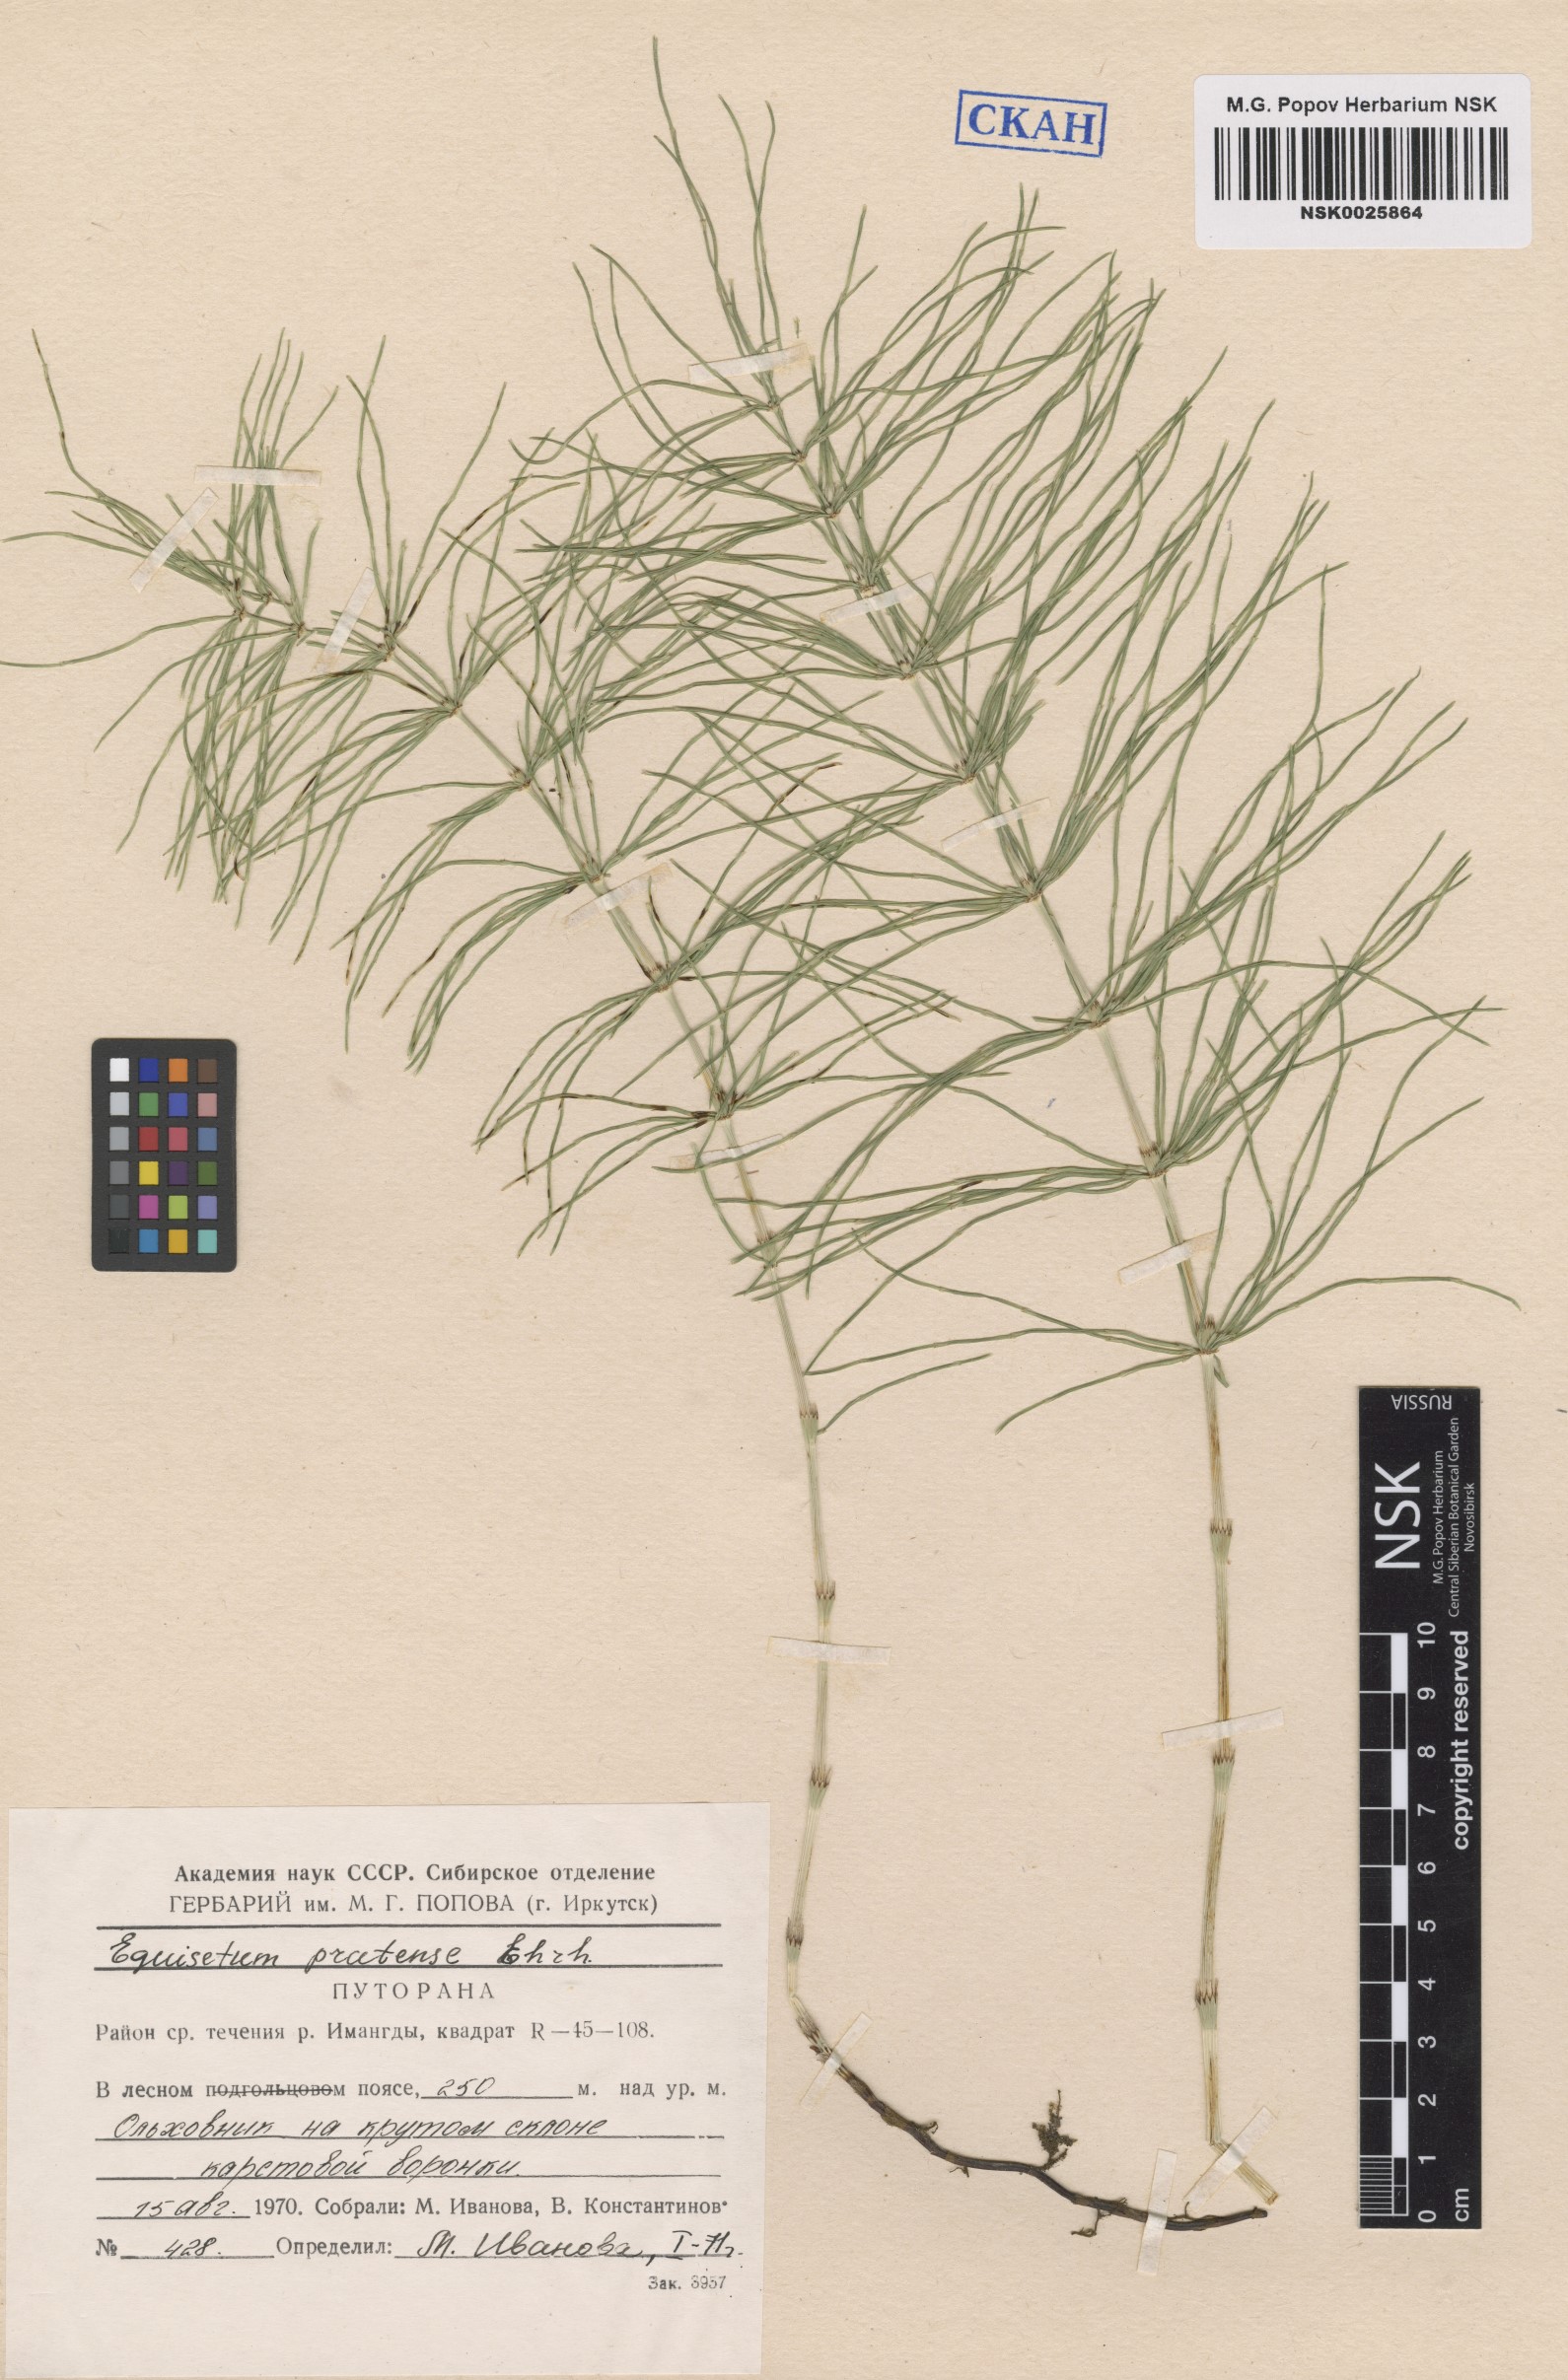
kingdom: Plantae
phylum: Tracheophyta
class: Polypodiopsida
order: Equisetales
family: Equisetaceae
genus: Equisetum
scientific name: Equisetum pratense
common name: Meadow horsetail
